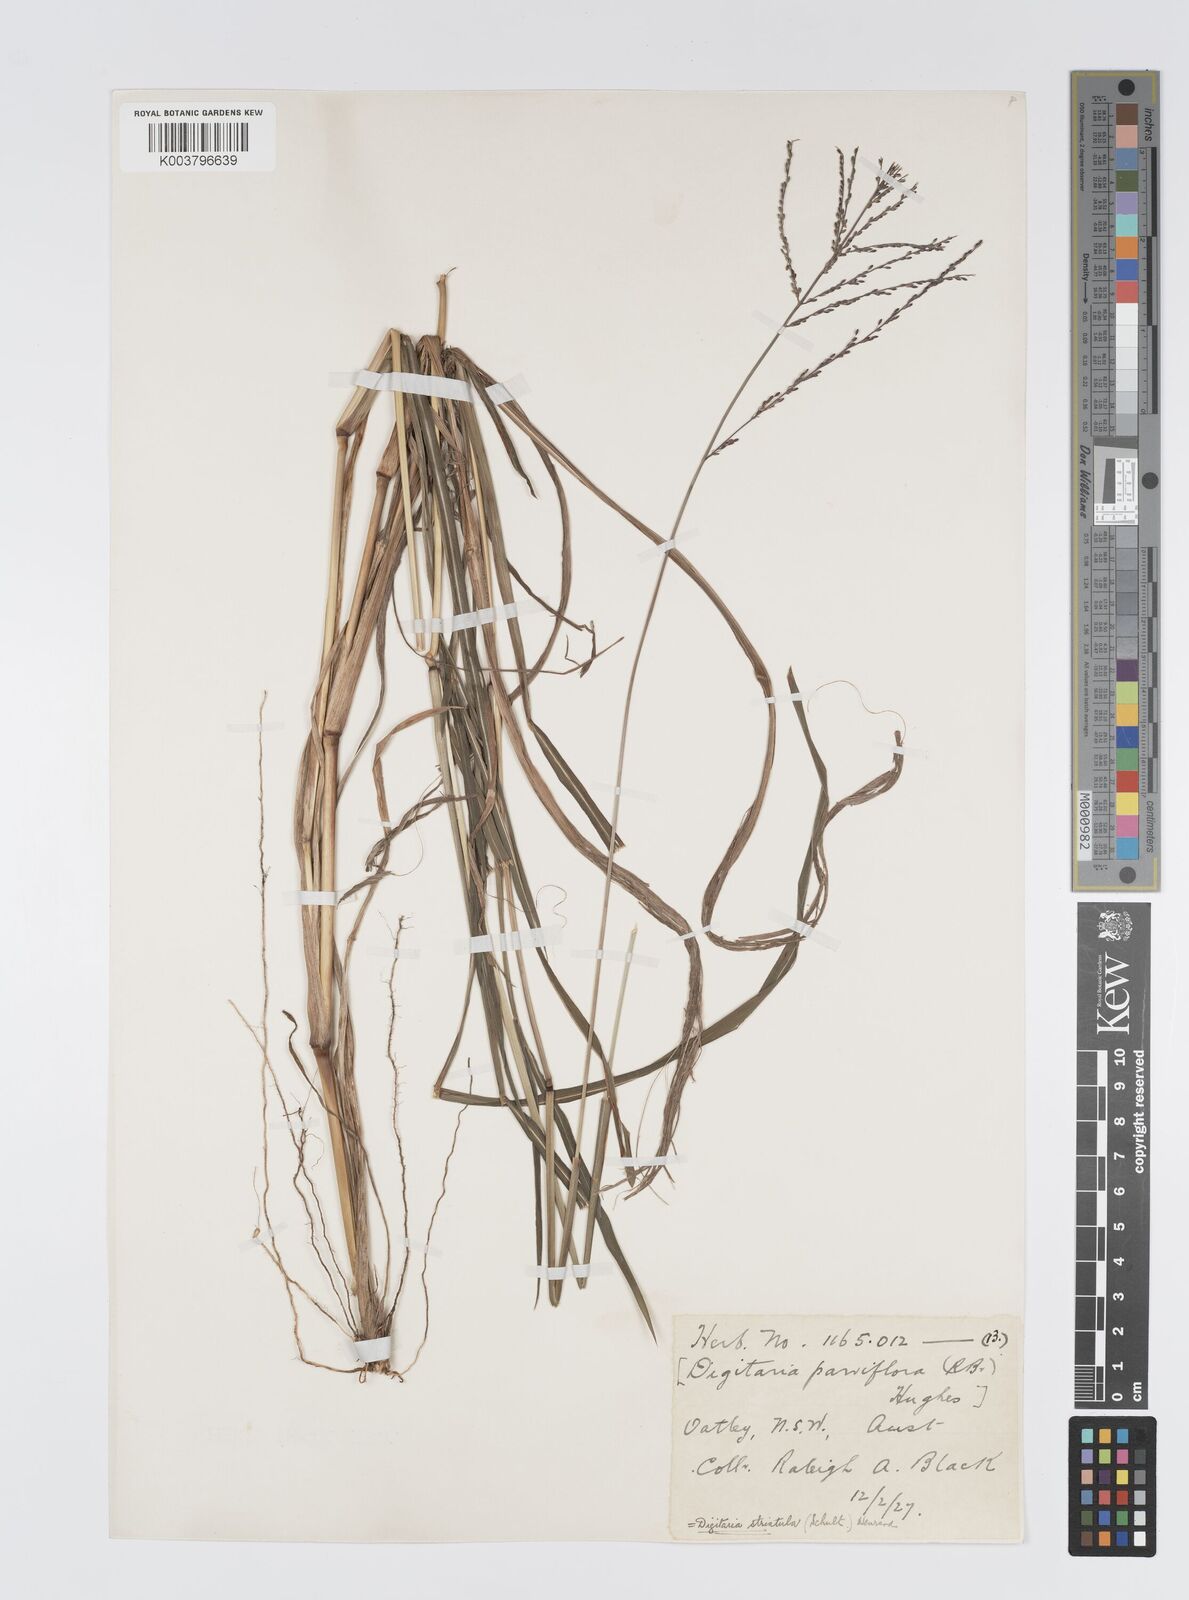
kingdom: Plantae
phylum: Tracheophyta
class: Liliopsida
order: Poales
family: Poaceae
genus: Digitaria
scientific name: Digitaria parviflora
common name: Small-flower finger grass
